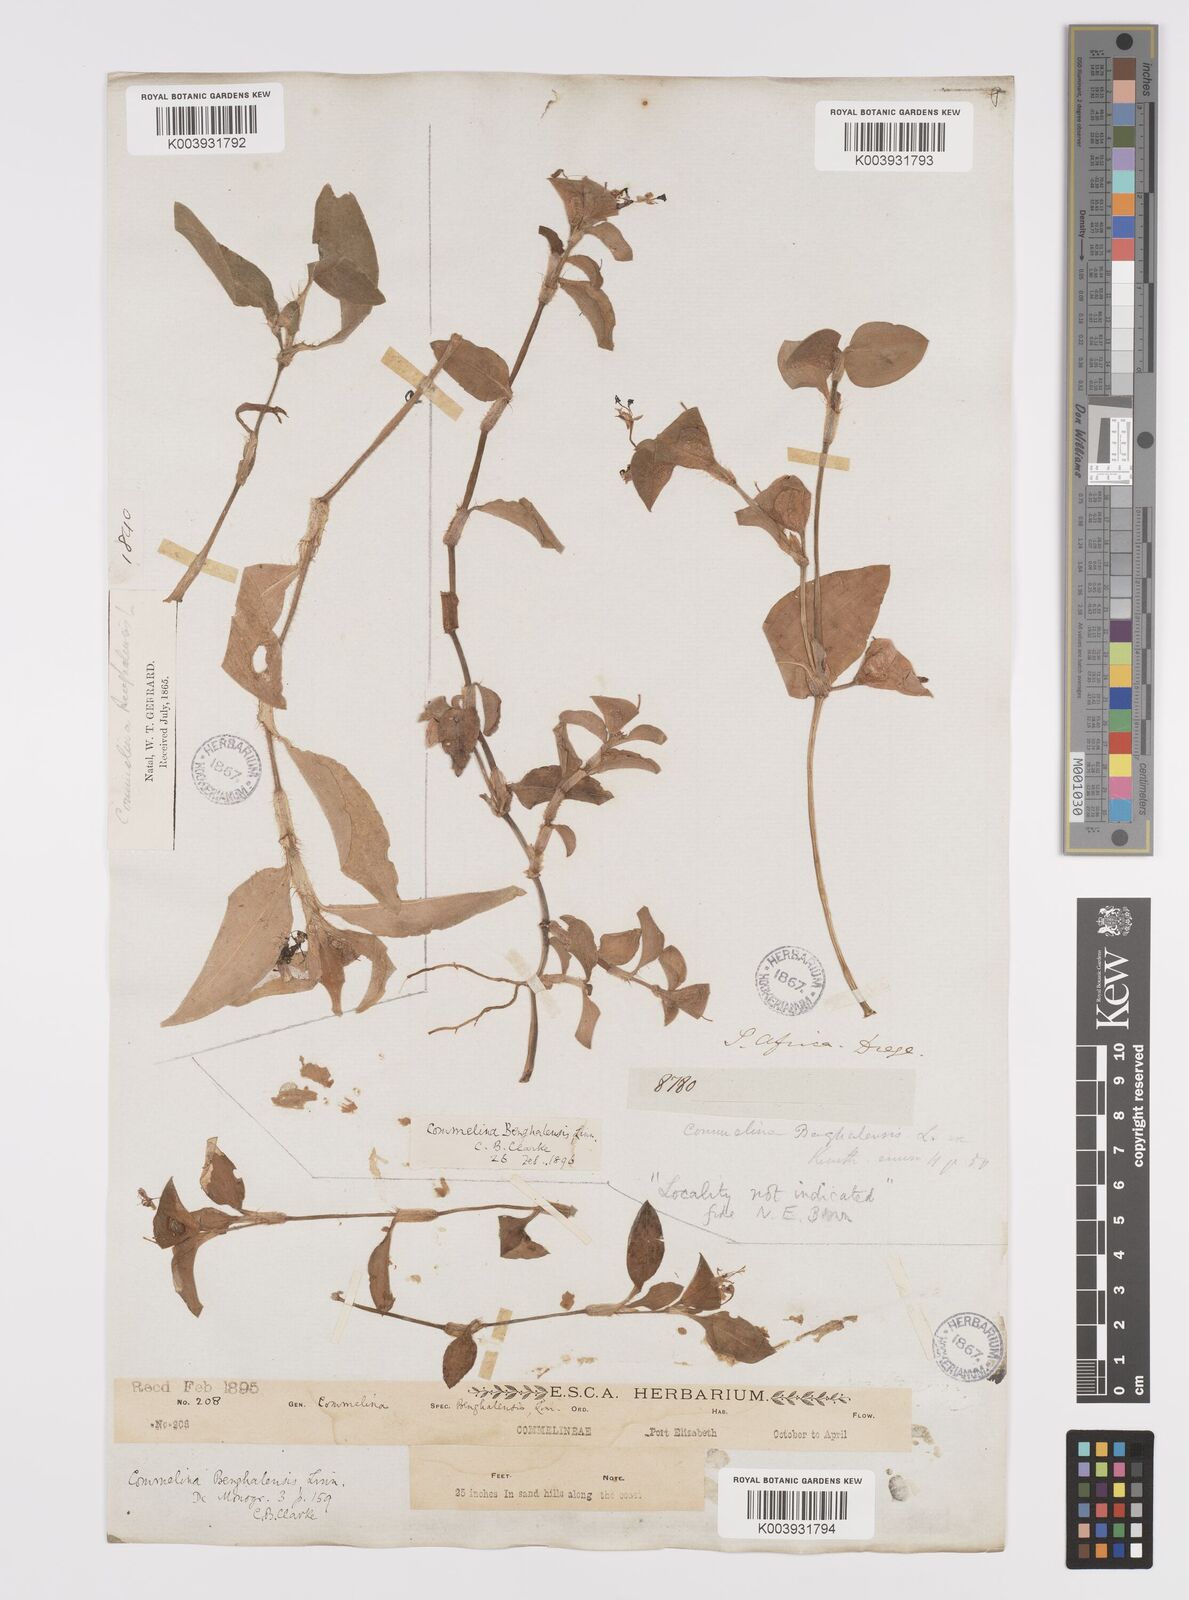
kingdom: Plantae
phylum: Tracheophyta
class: Liliopsida
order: Commelinales
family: Commelinaceae
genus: Commelina
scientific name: Commelina benghalensis
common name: Jio
